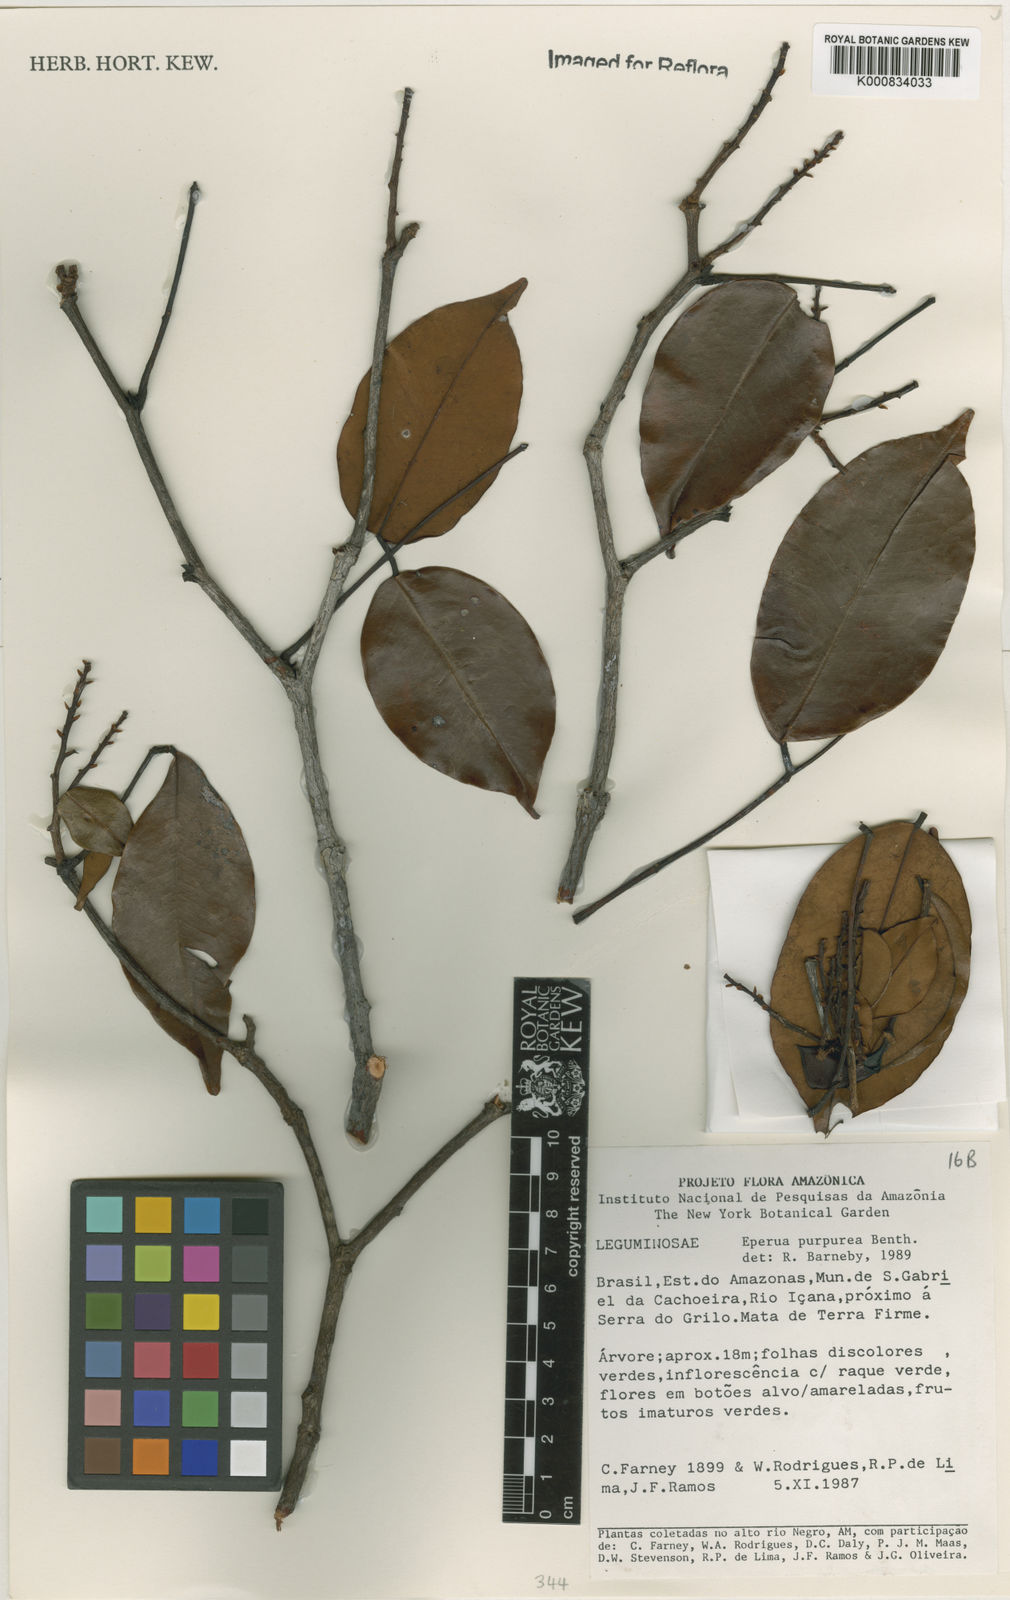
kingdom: Plantae
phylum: Tracheophyta
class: Magnoliopsida
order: Fabales
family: Fabaceae
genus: Eperua
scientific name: Eperua purpurea
